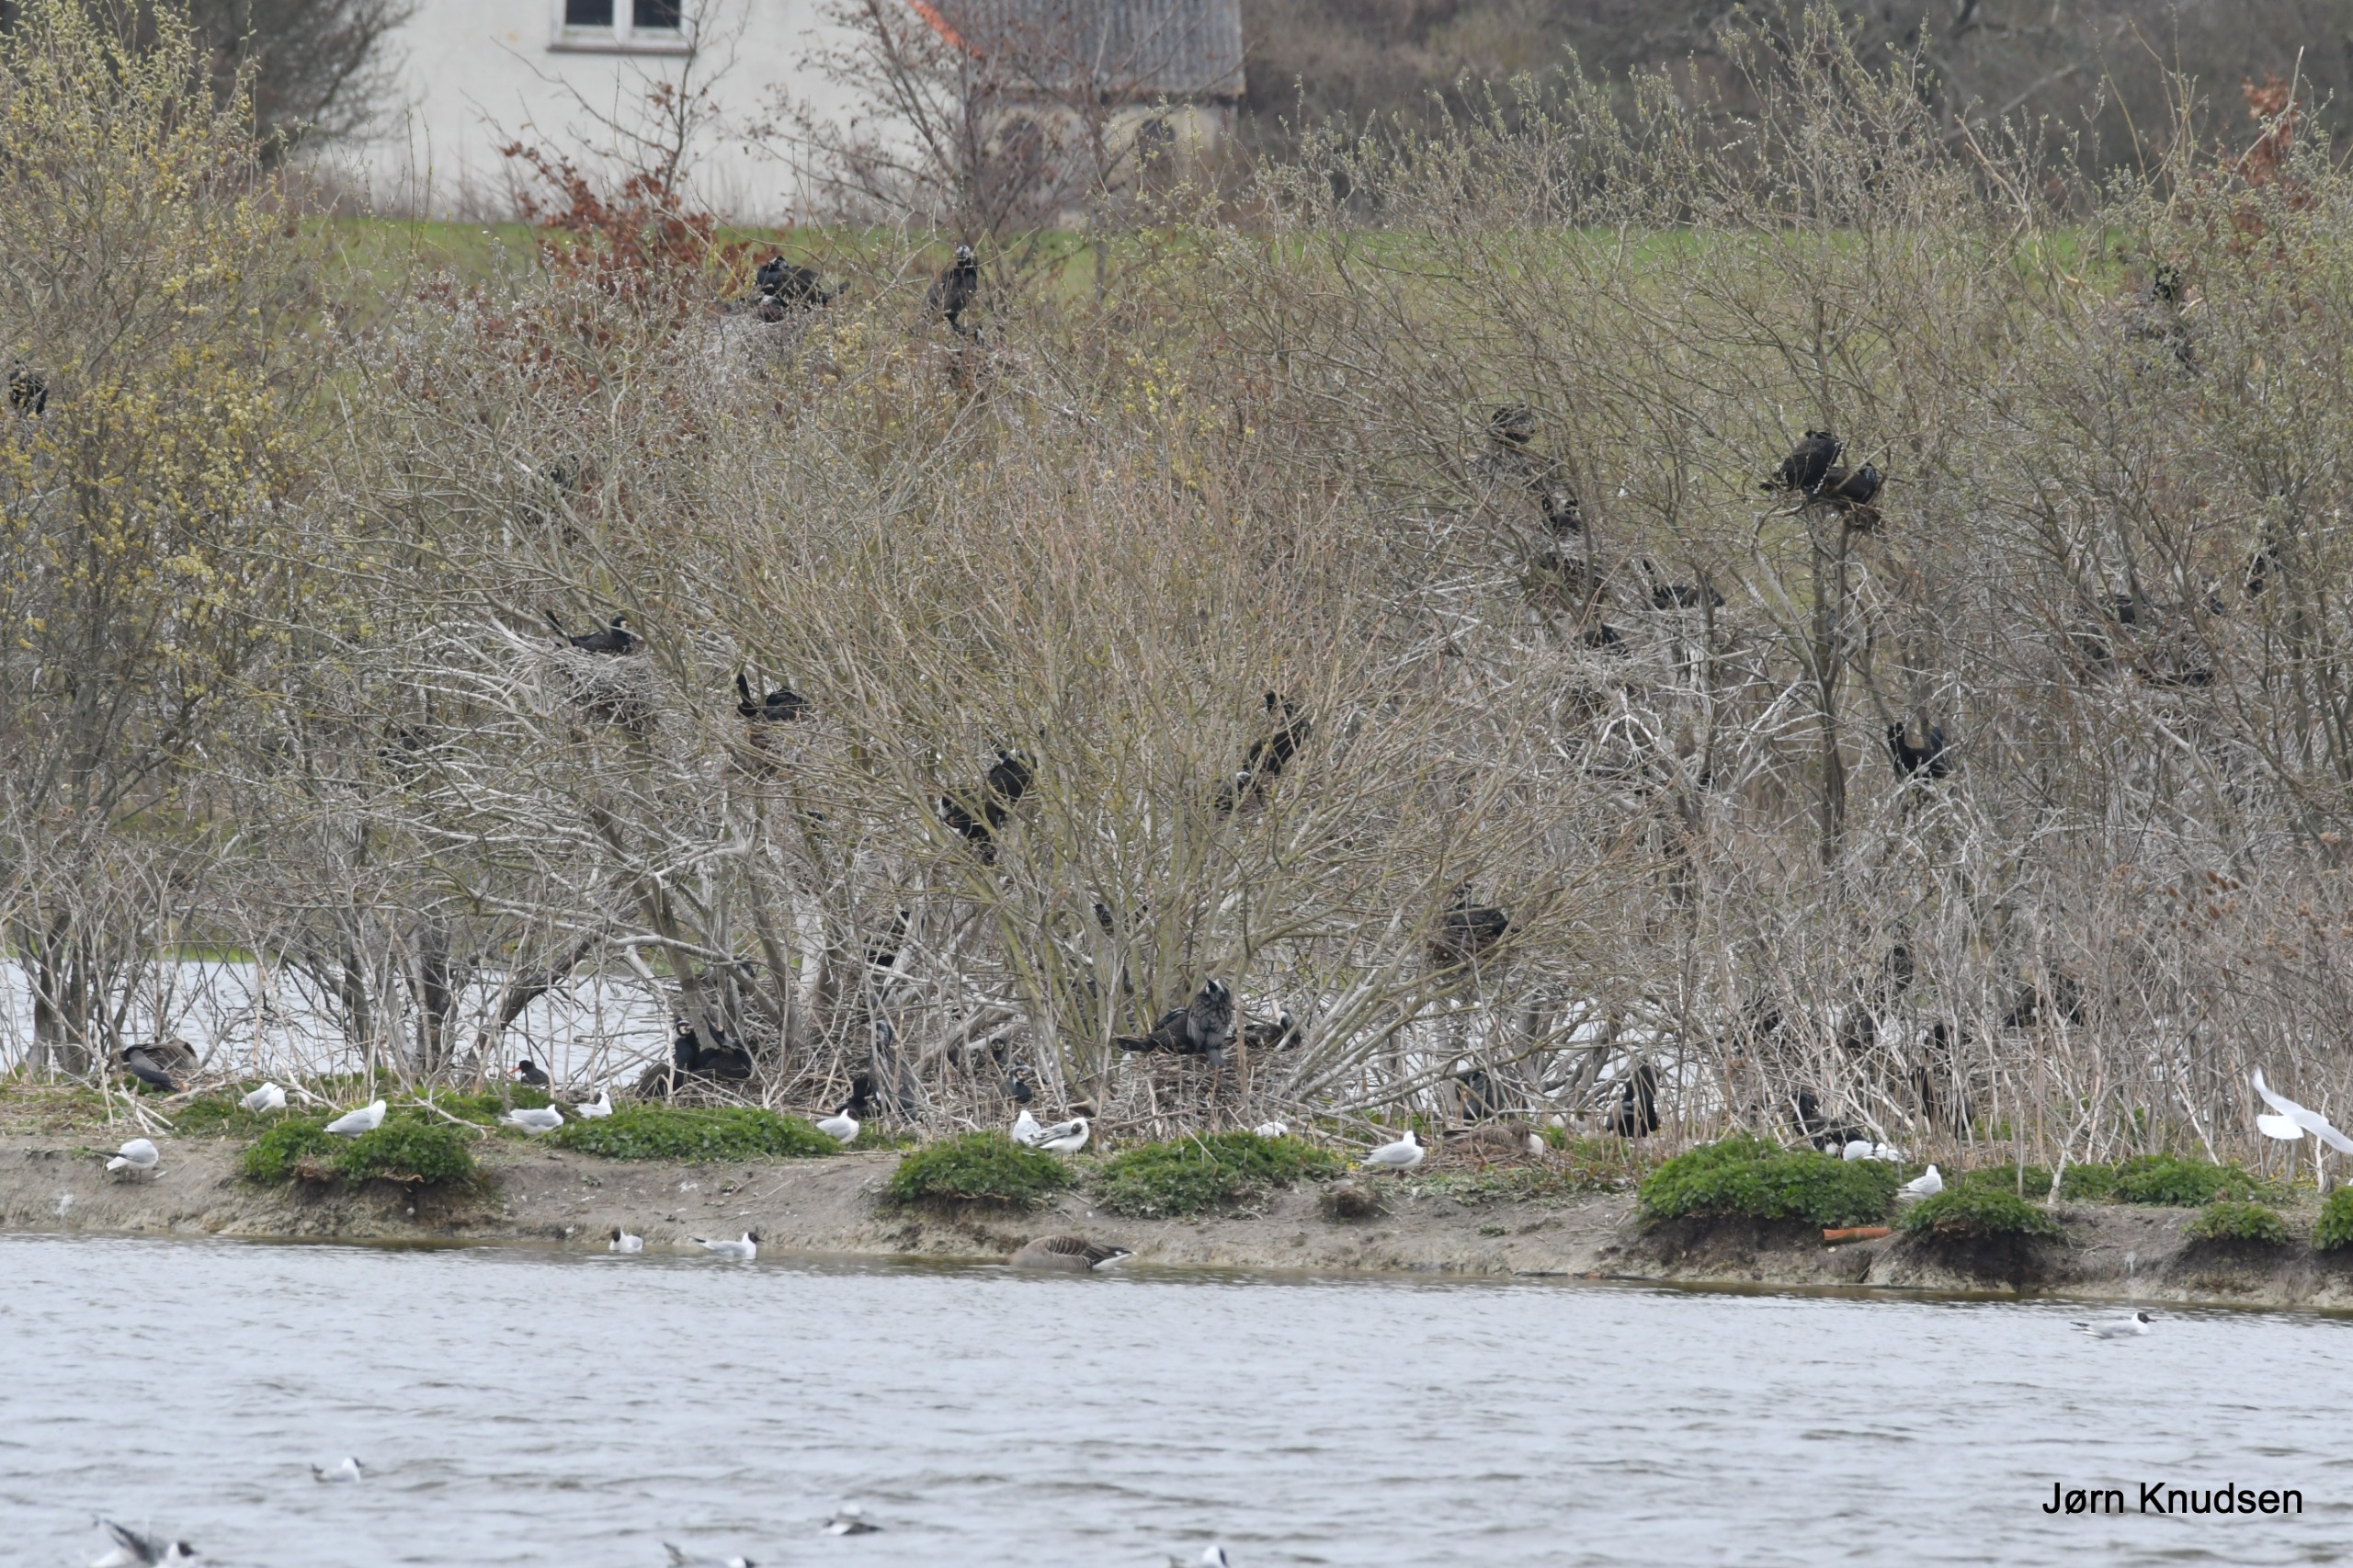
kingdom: Animalia
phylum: Chordata
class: Aves
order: Suliformes
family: Phalacrocoracidae
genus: Phalacrocorax
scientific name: Phalacrocorax carbo
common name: Skarv
